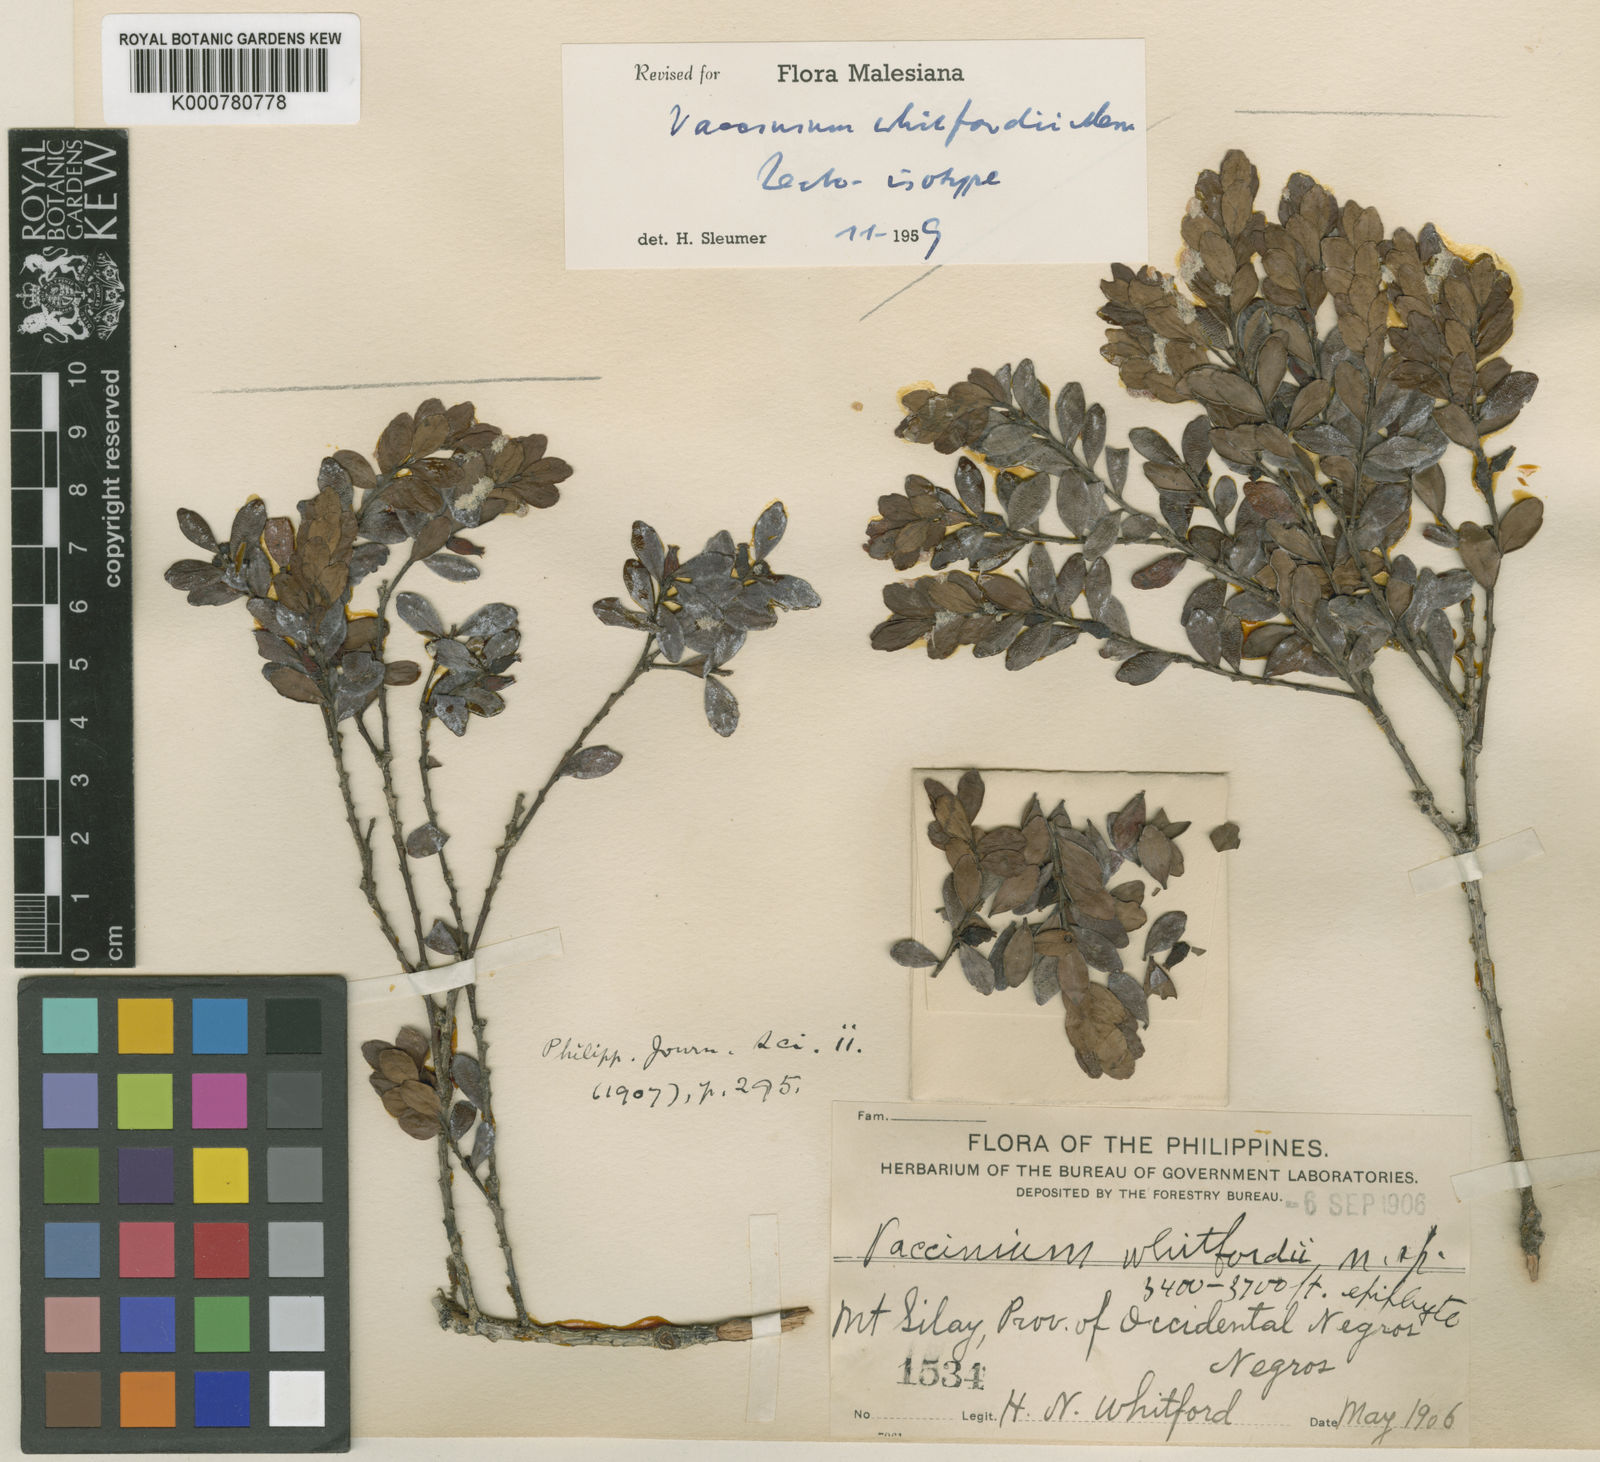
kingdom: Plantae
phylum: Tracheophyta
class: Magnoliopsida
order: Ericales
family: Ericaceae
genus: Vaccinium
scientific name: Vaccinium whitfordii
